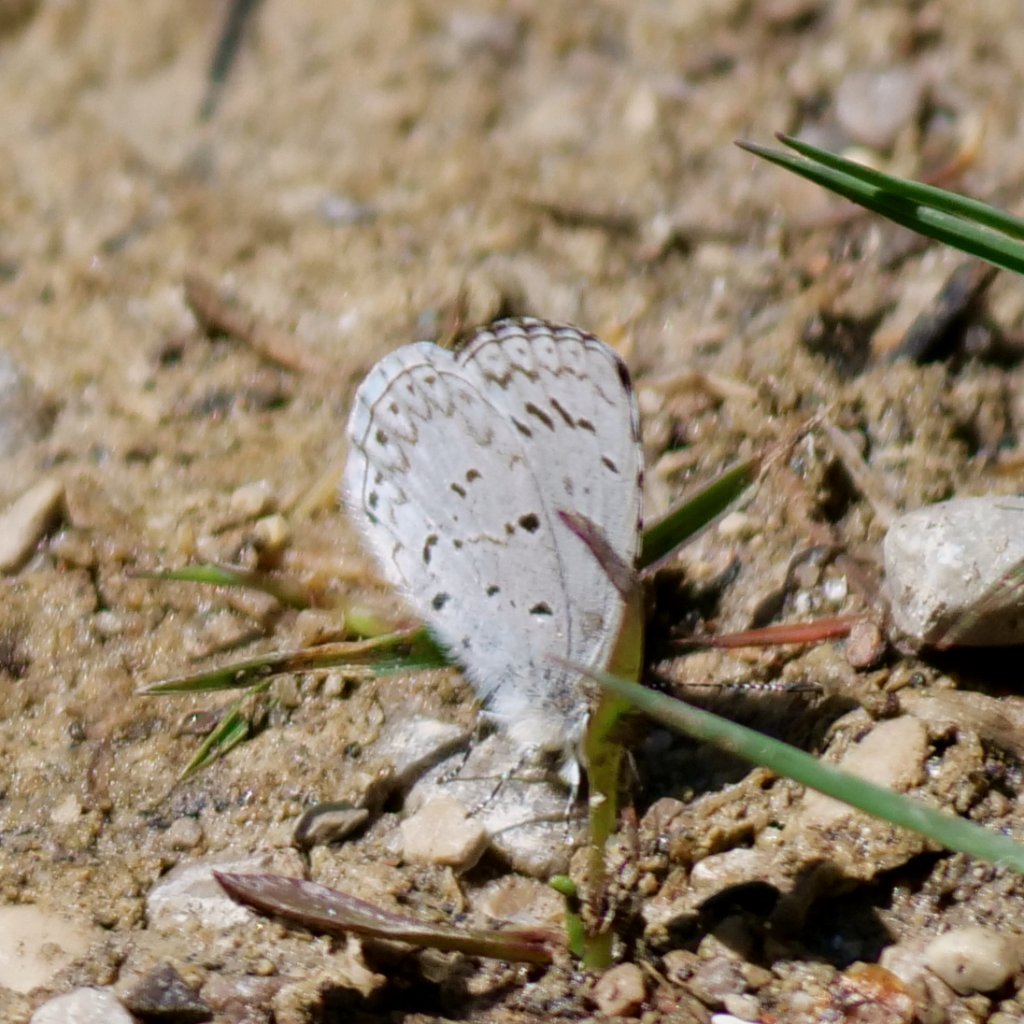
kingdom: Animalia
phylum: Arthropoda
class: Insecta
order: Lepidoptera
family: Lycaenidae
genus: Celastrina
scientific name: Celastrina lucia
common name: Northern Spring Azure
